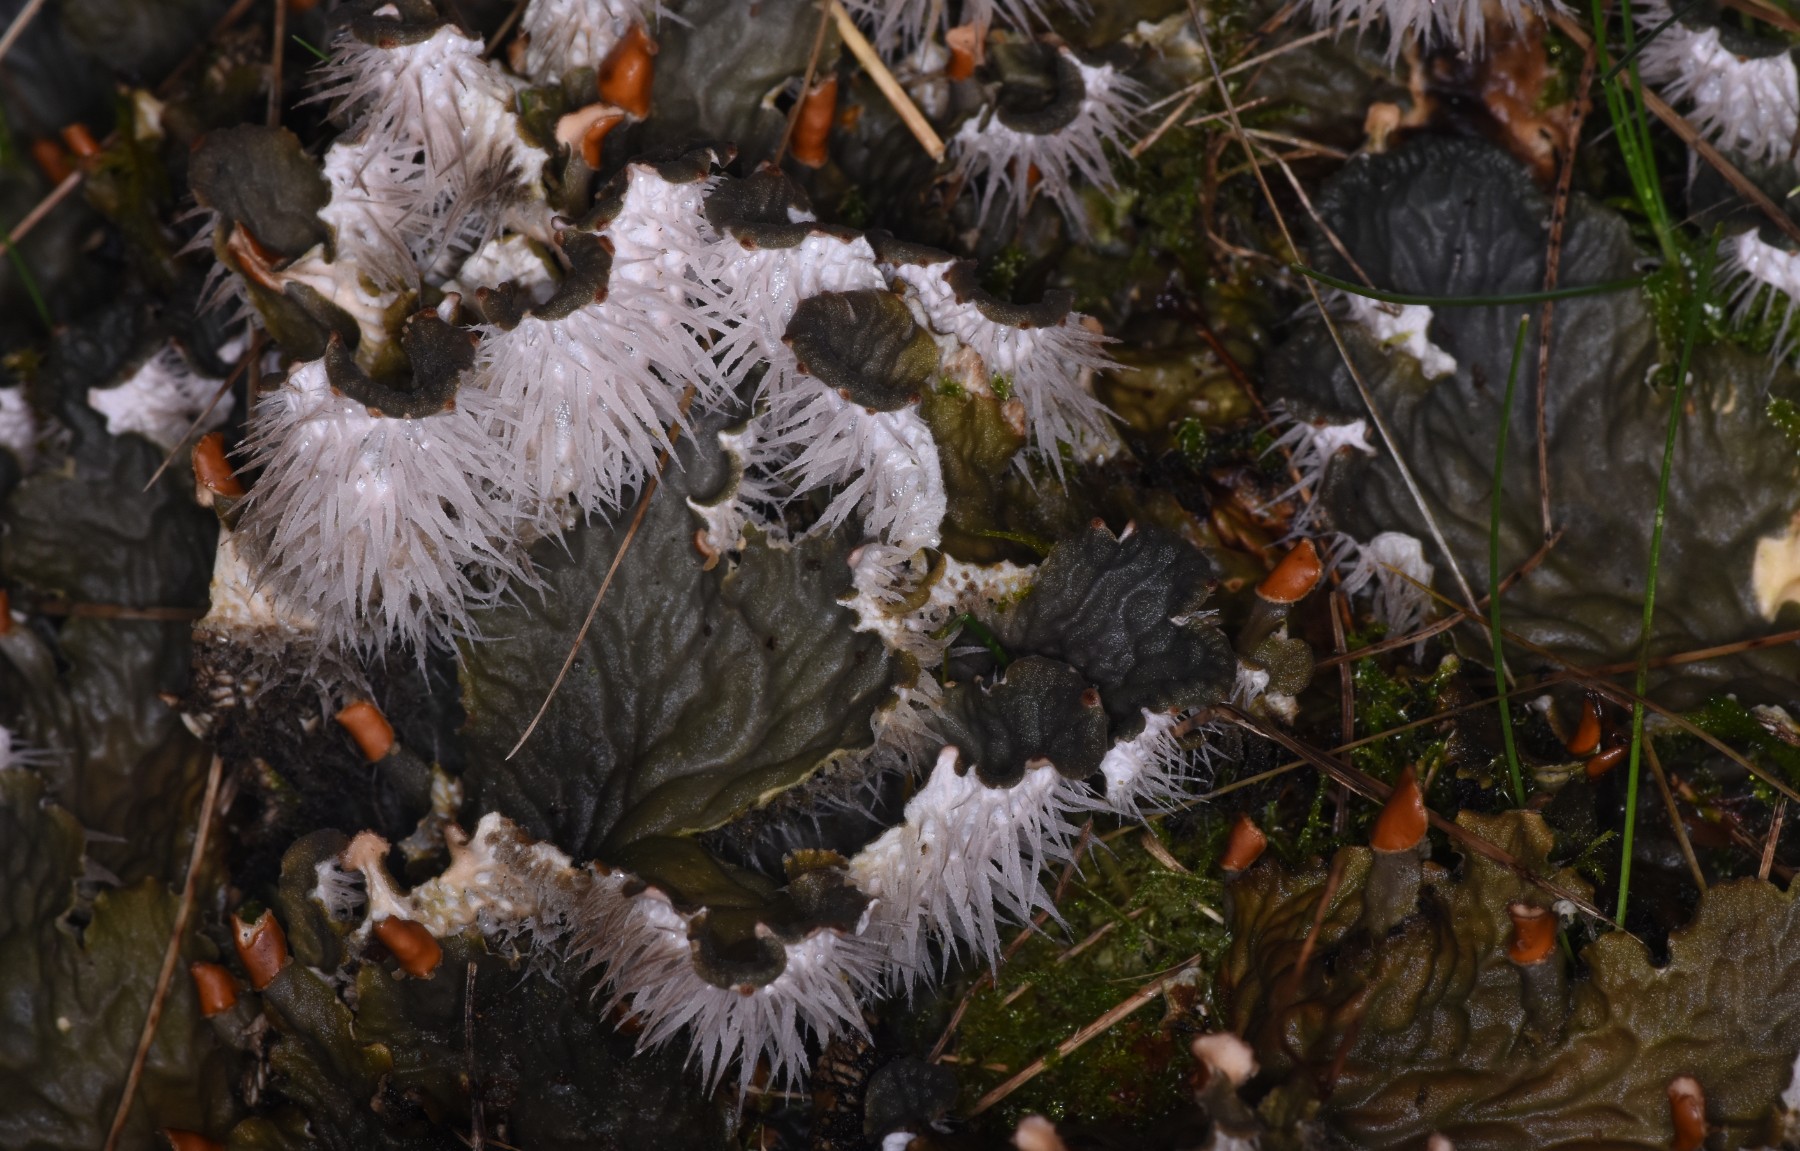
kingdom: Fungi
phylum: Ascomycota
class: Lecanoromycetes
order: Peltigerales
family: Peltigeraceae
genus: Peltigera
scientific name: Peltigera membranacea
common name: tynd skjoldlav
